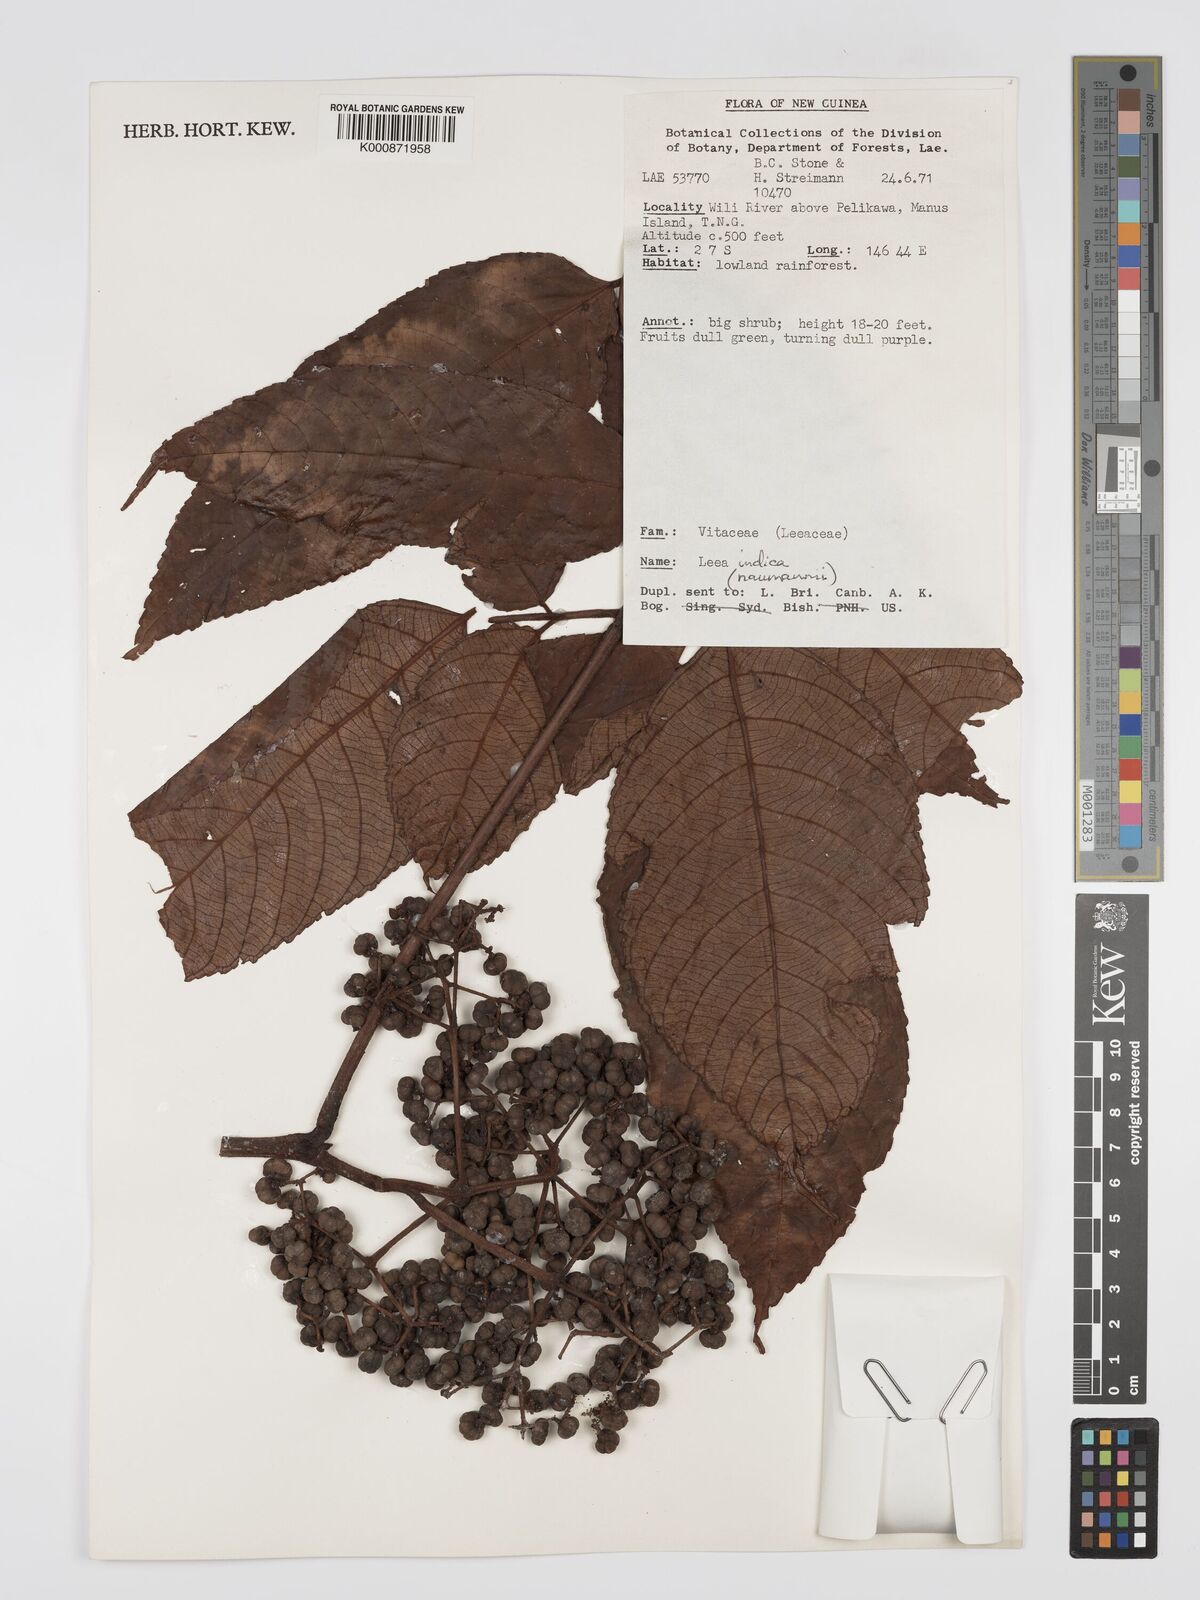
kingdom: Plantae
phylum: Tracheophyta
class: Magnoliopsida
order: Vitales
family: Vitaceae
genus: Leea
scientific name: Leea indica
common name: Bandicoot-berry
